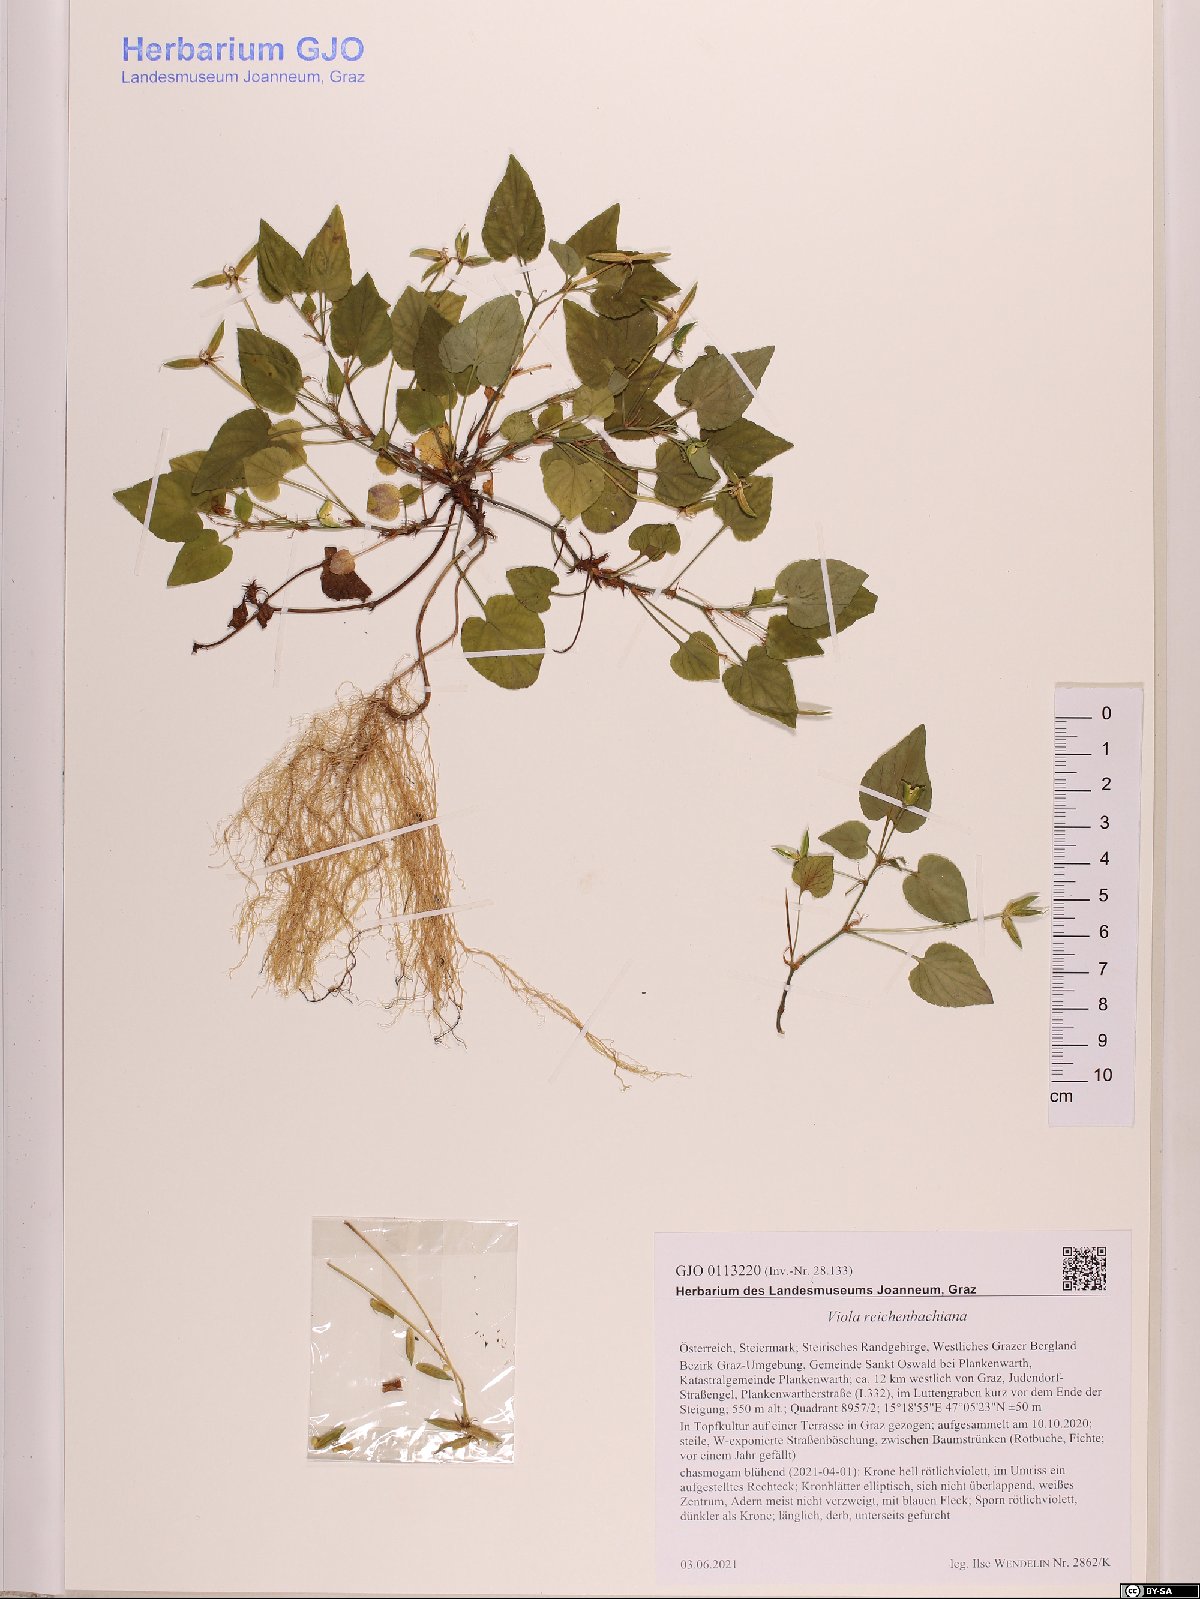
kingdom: Plantae
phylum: Tracheophyta
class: Magnoliopsida
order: Malpighiales
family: Violaceae
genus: Viola
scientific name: Viola reichenbachiana
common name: Early dog-violet
